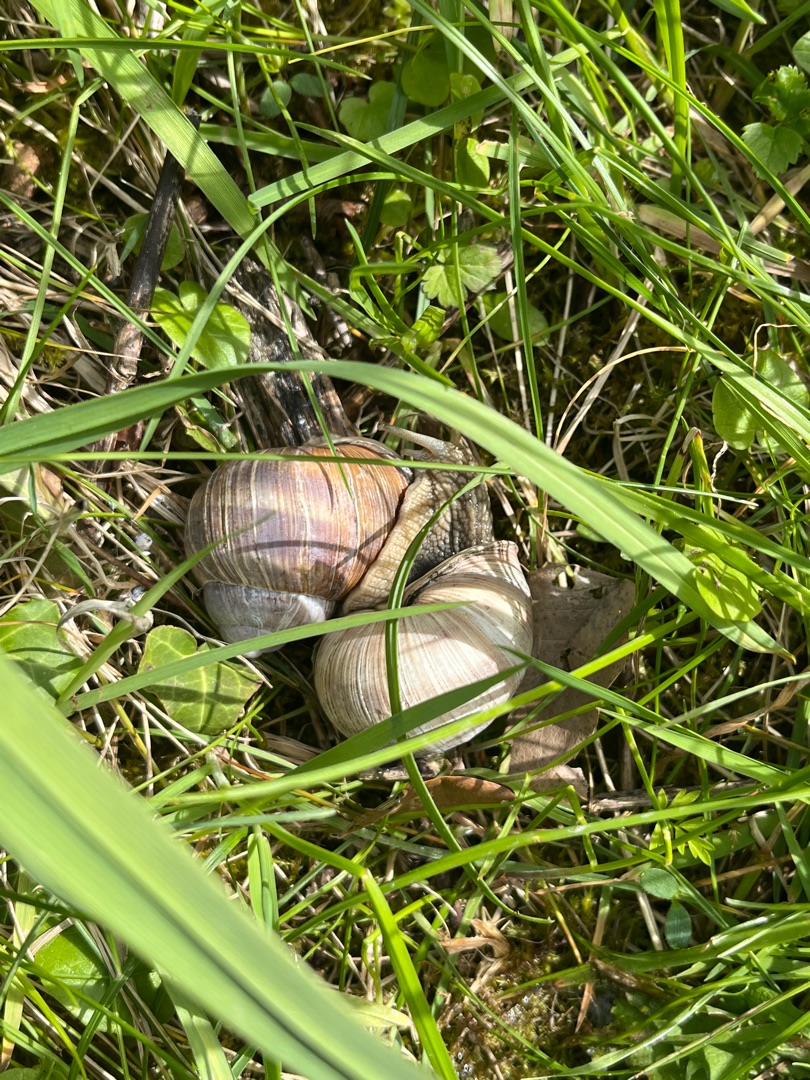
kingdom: Animalia
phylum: Mollusca
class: Gastropoda
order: Stylommatophora
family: Helicidae
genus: Helix
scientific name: Helix pomatia
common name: Vinbjergsnegl
